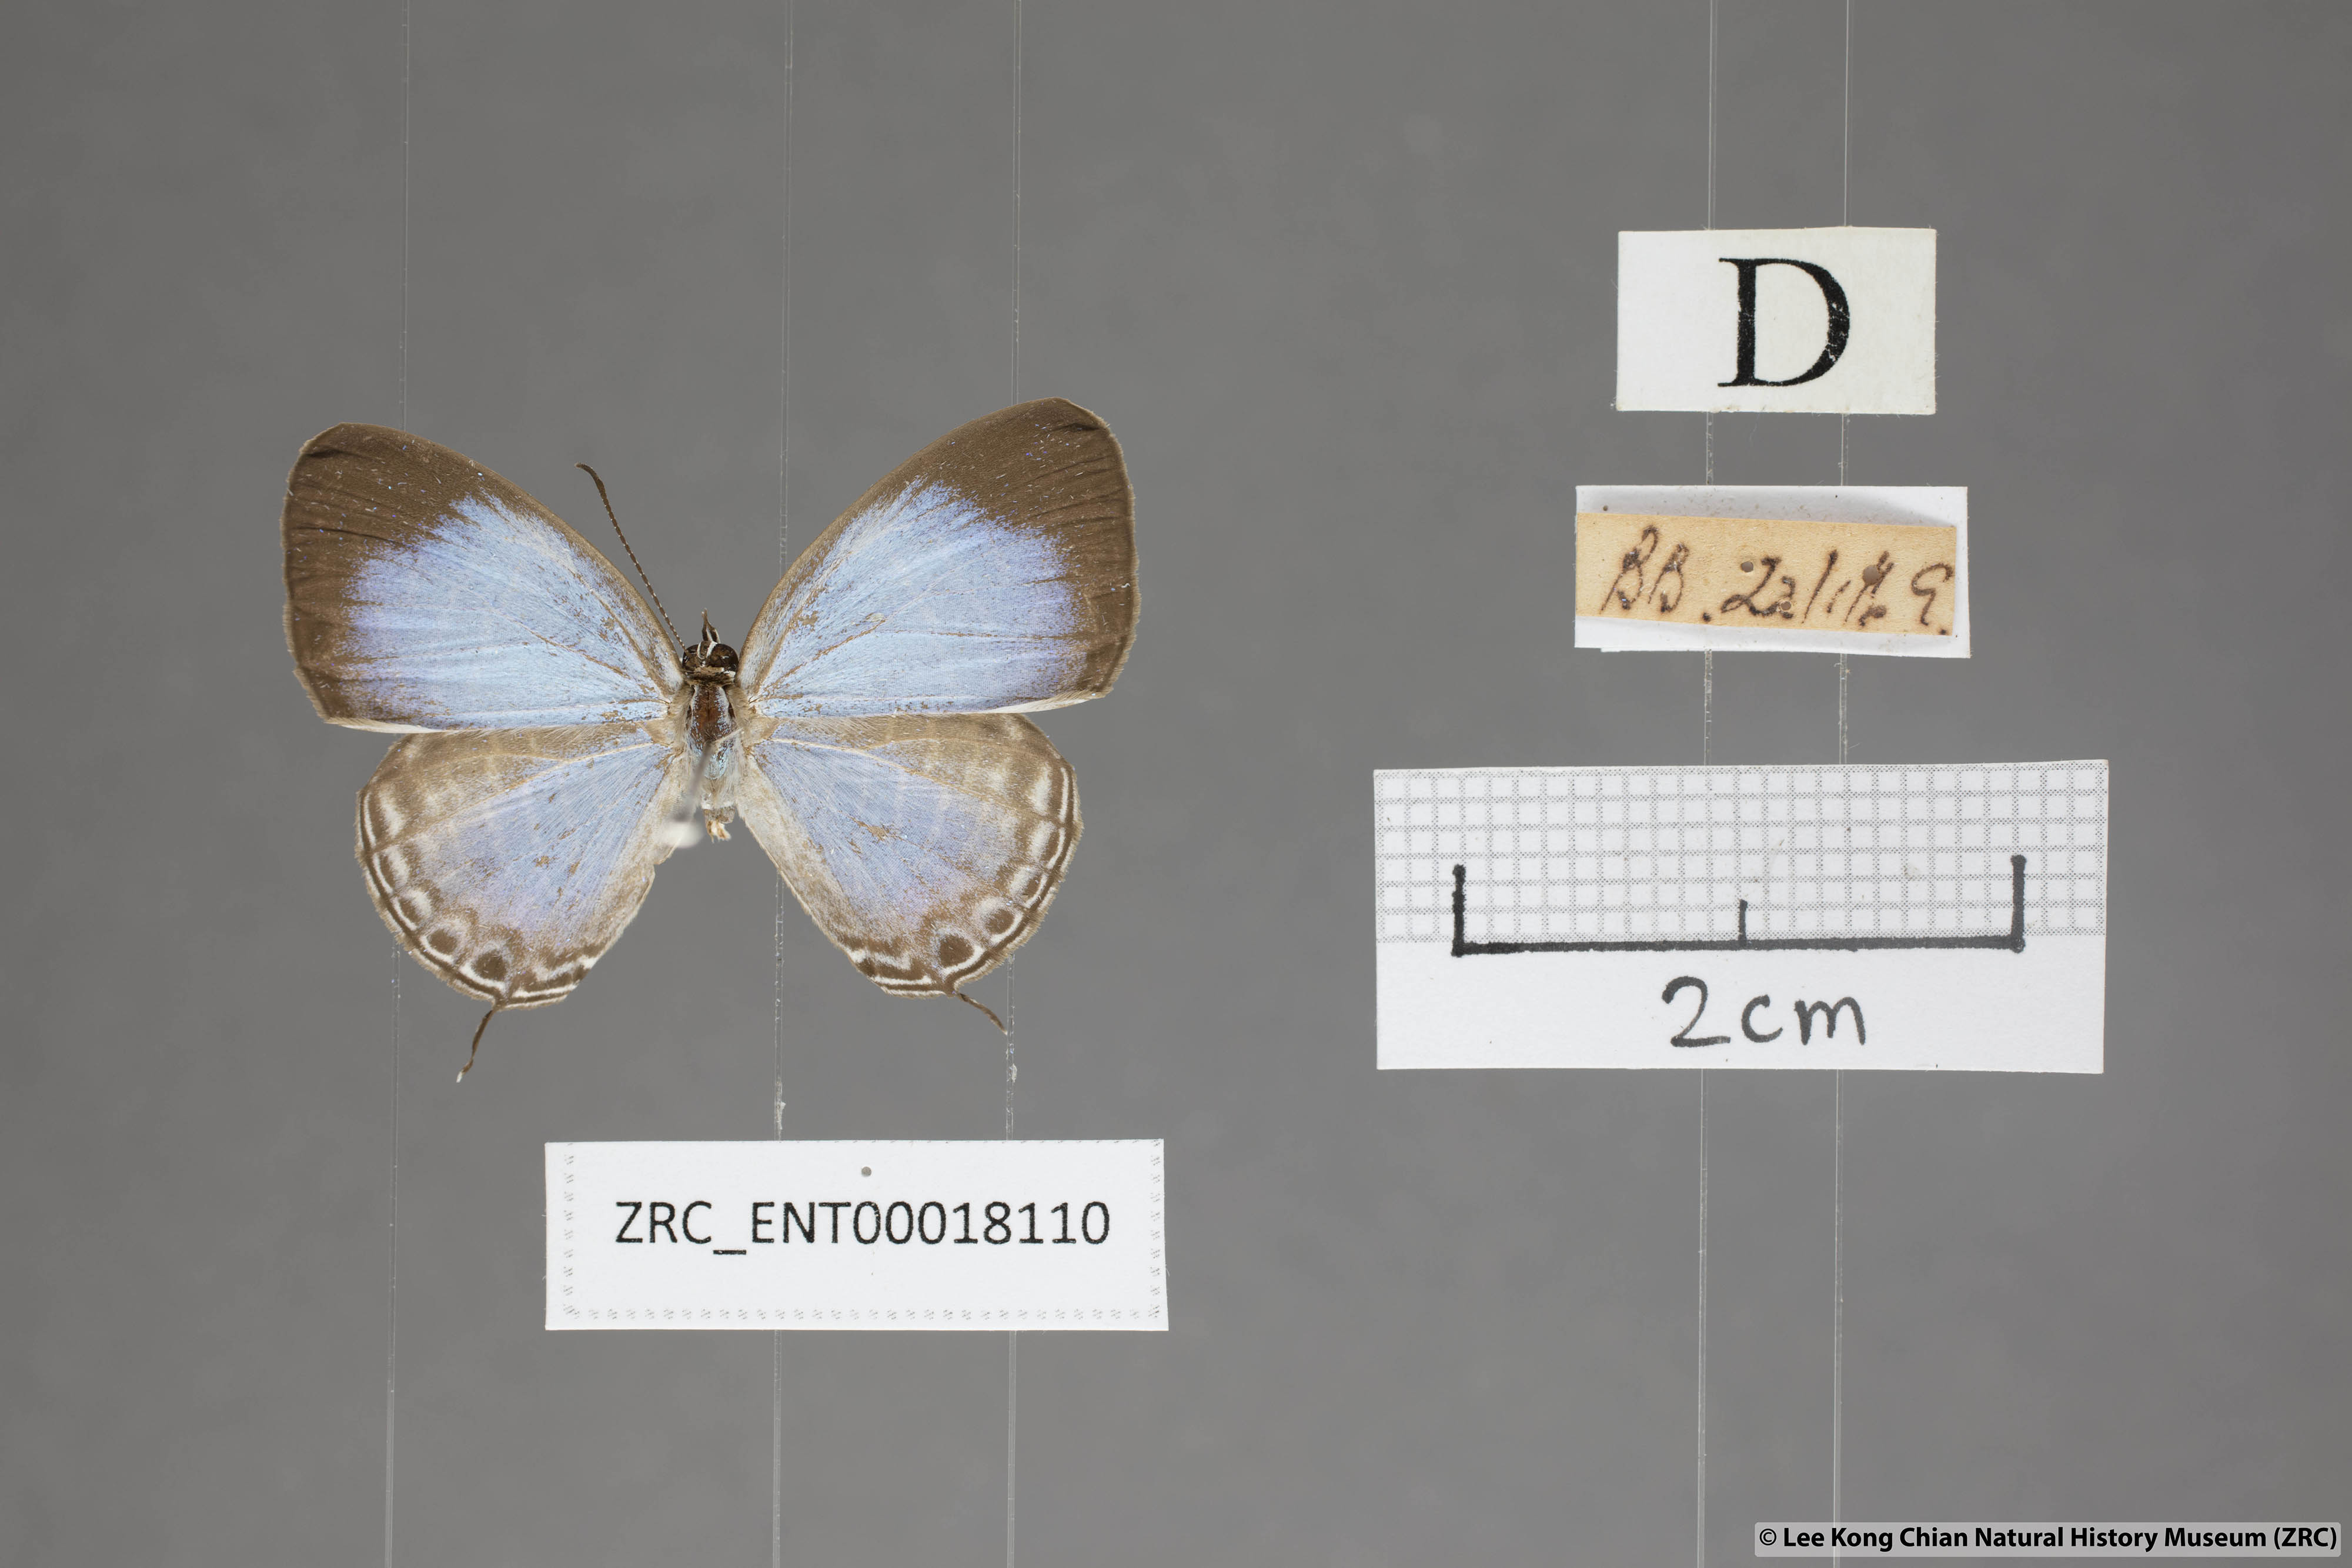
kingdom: Animalia
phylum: Arthropoda
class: Insecta
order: Lepidoptera
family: Lycaenidae
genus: Jamides
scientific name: Jamides
